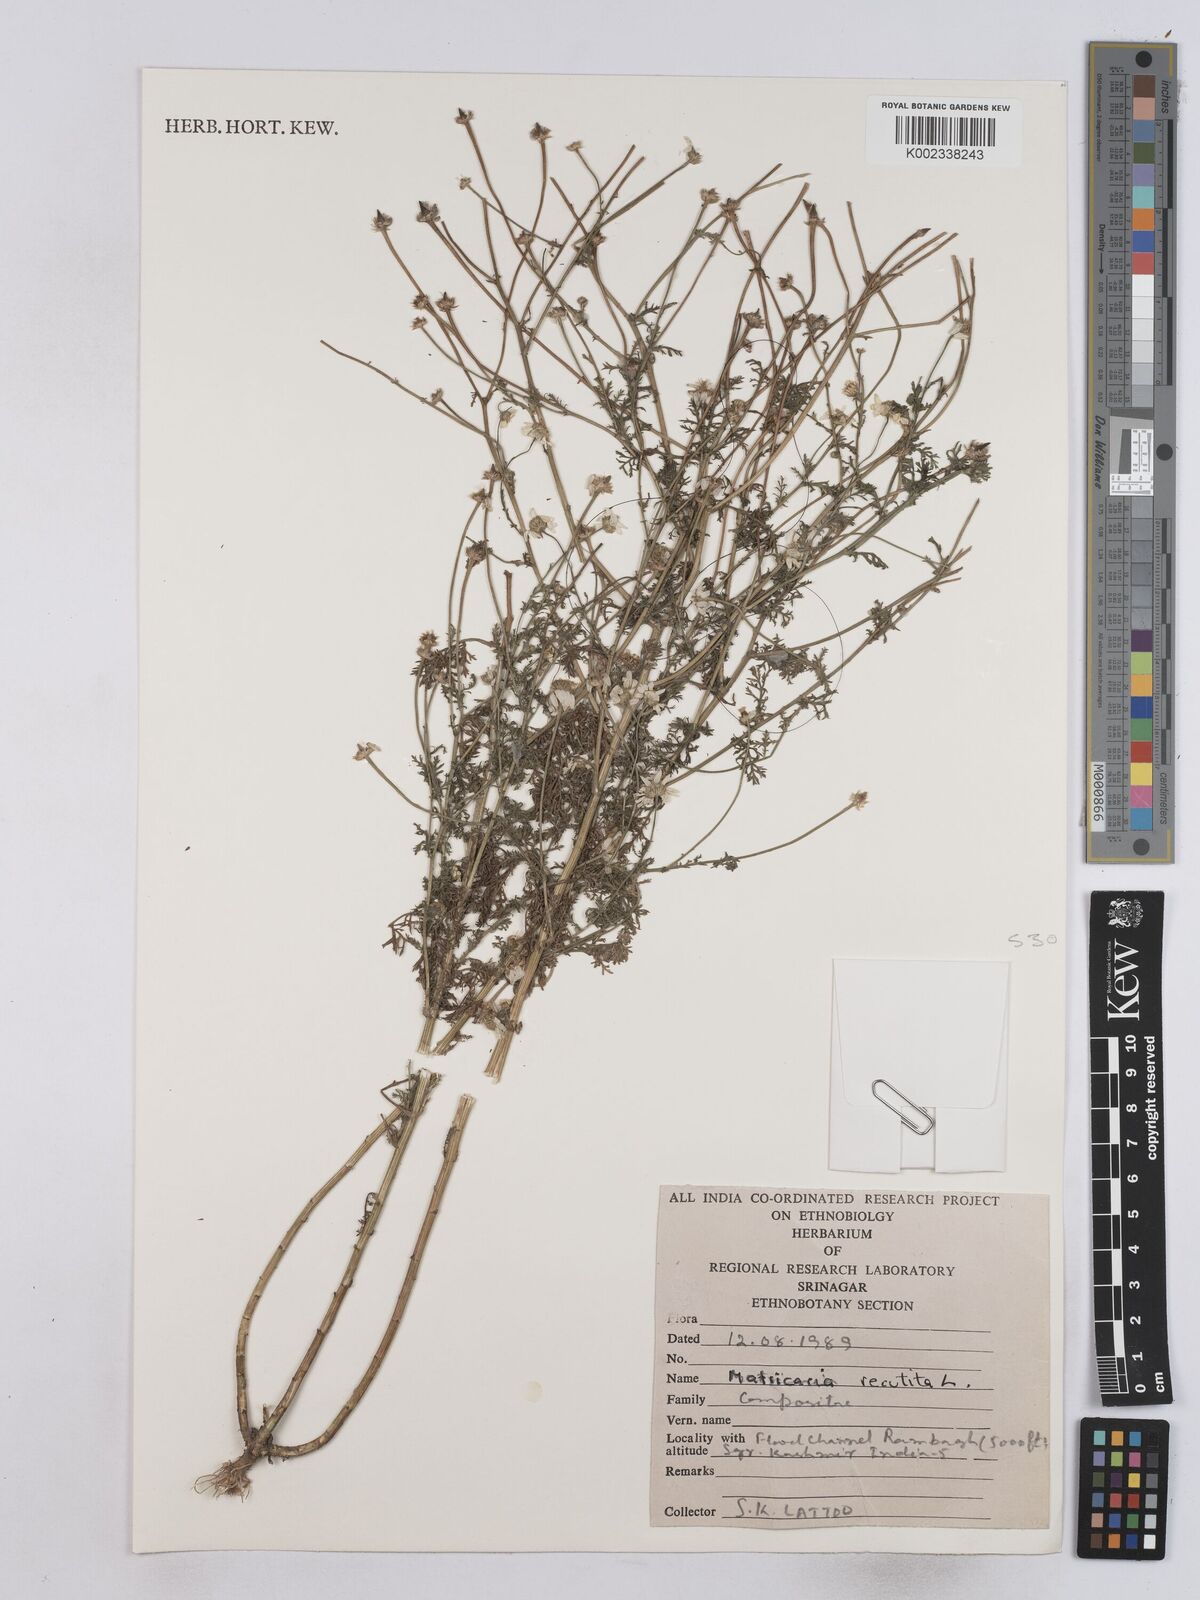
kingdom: Plantae
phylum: Tracheophyta
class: Magnoliopsida
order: Asterales
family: Asteraceae
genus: Matricaria
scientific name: Matricaria chamomilla
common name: Scented mayweed
